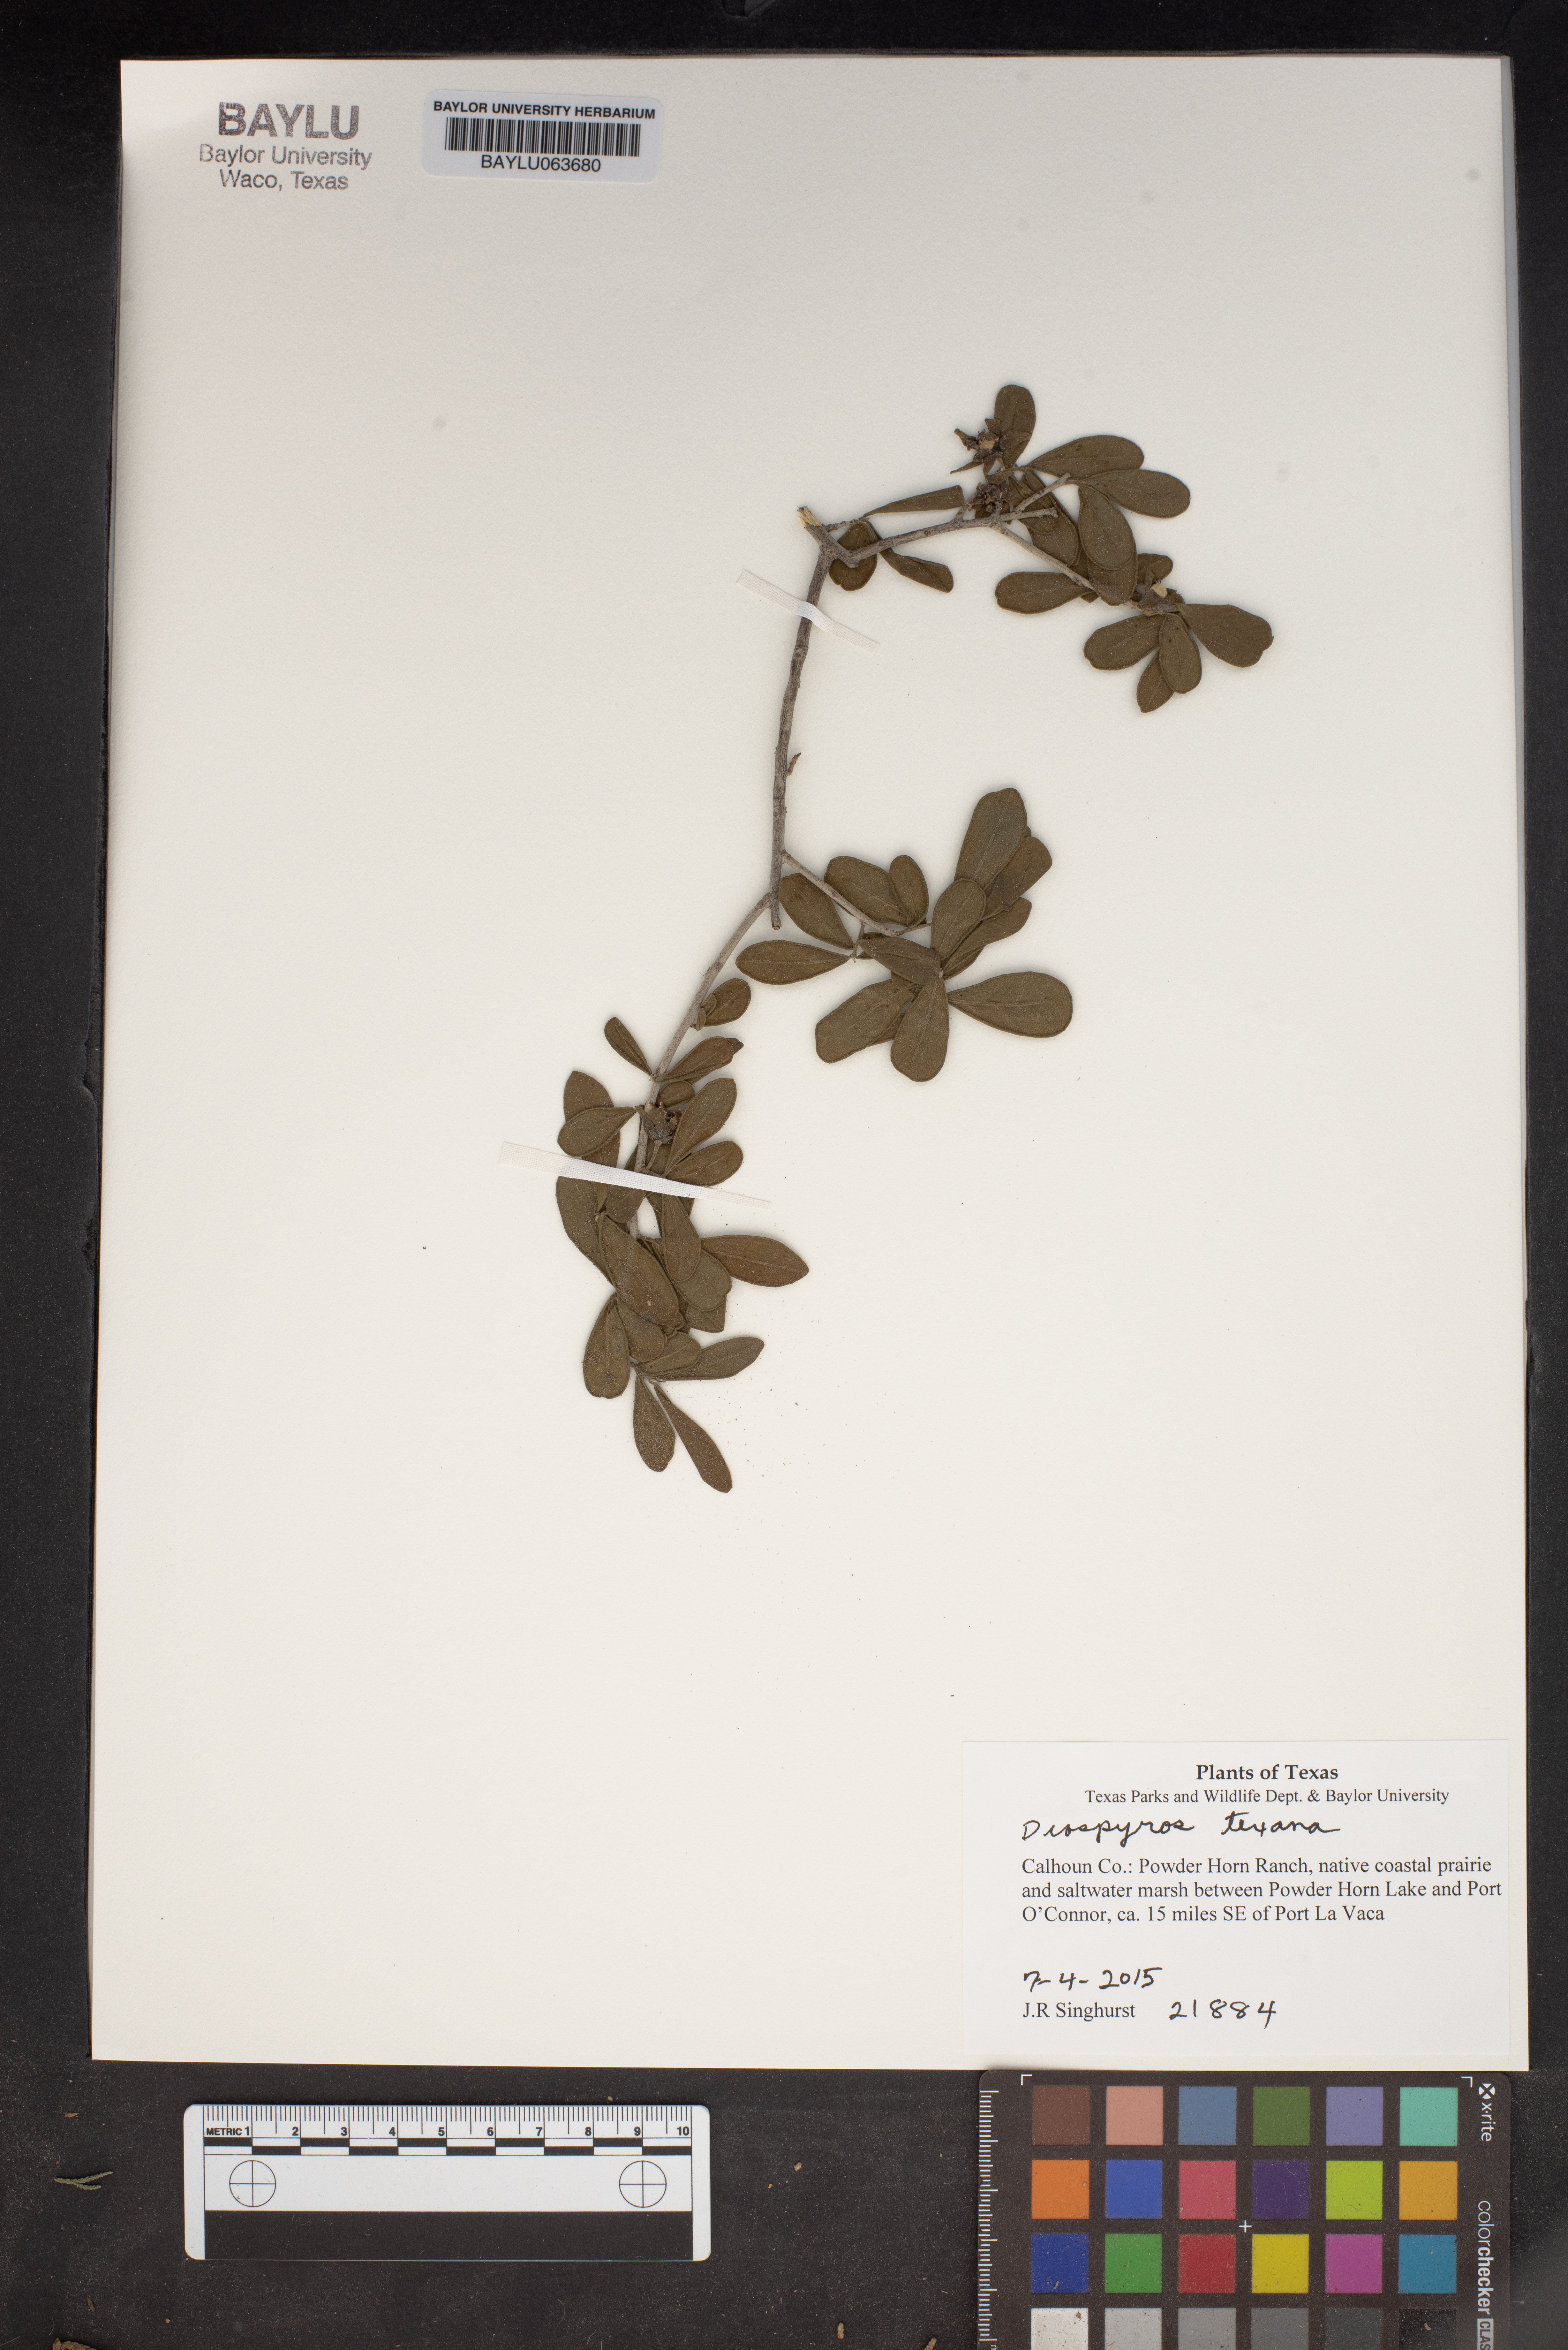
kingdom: Plantae
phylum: Tracheophyta
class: Magnoliopsida
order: Ericales
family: Ebenaceae
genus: Diospyros
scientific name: Diospyros texana
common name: Texas persimmon
